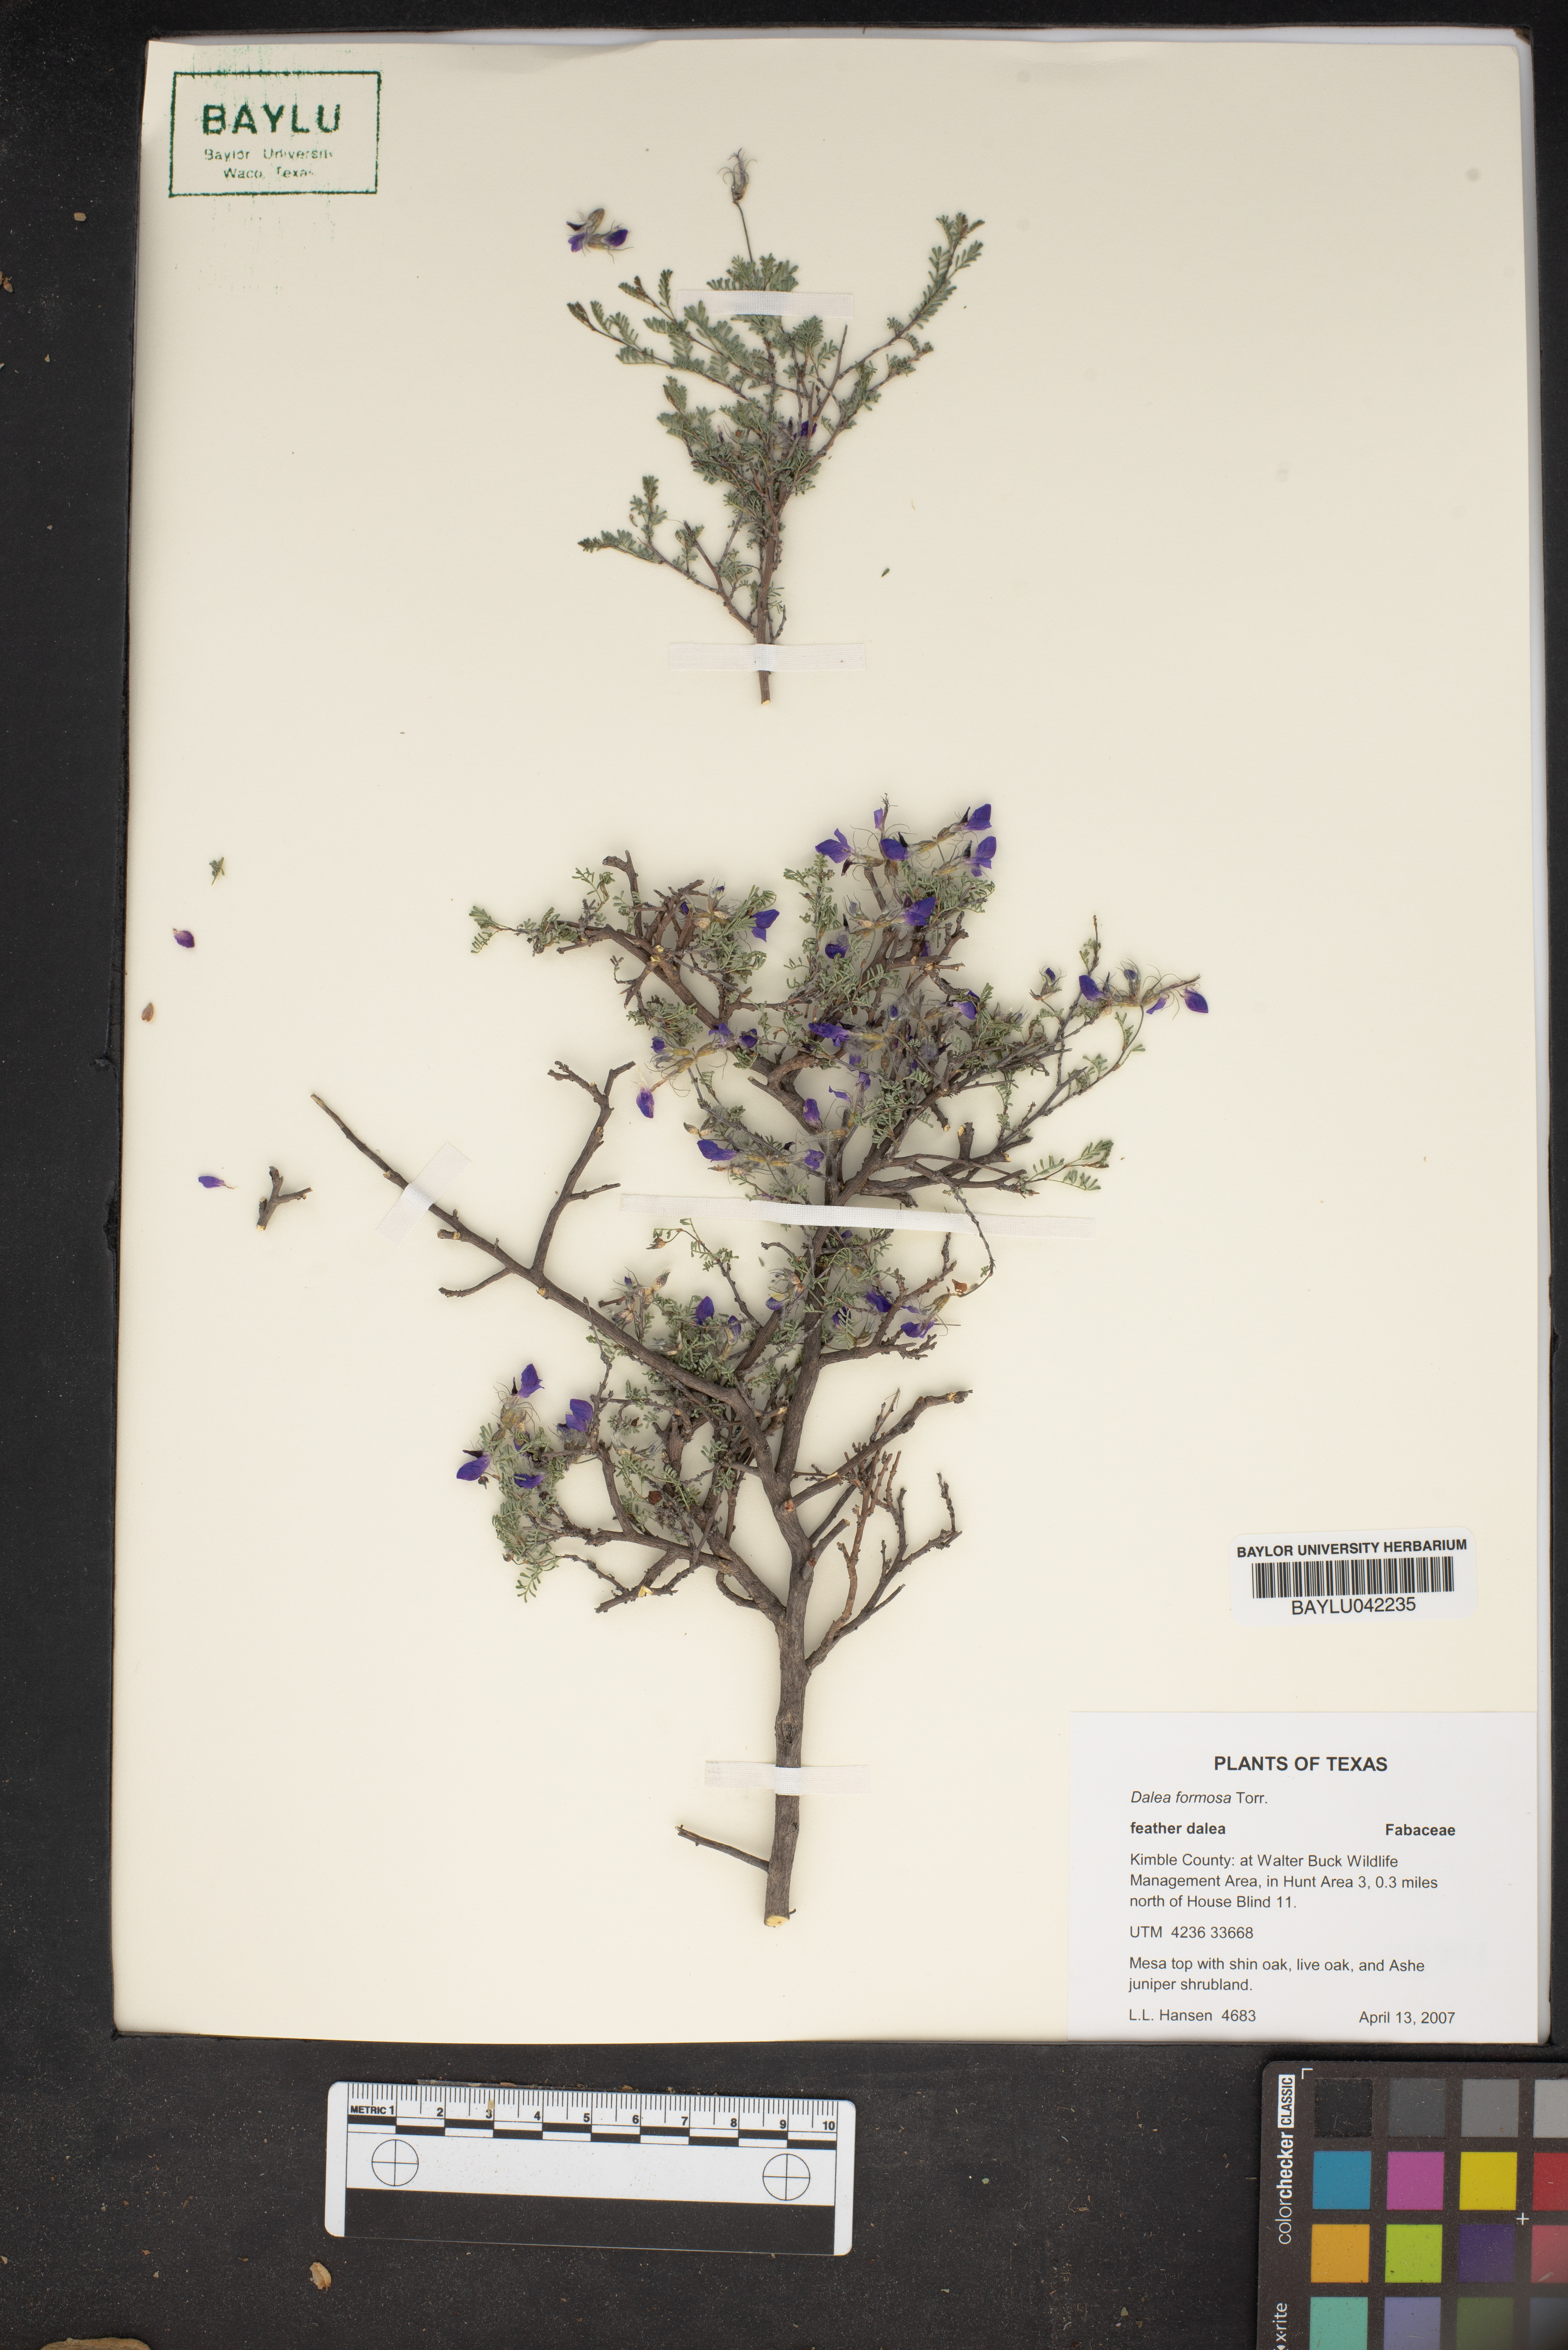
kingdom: Plantae
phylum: Tracheophyta
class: Magnoliopsida
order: Fabales
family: Fabaceae
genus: Dalea
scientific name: Dalea formosa
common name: Feather-plume dalea
